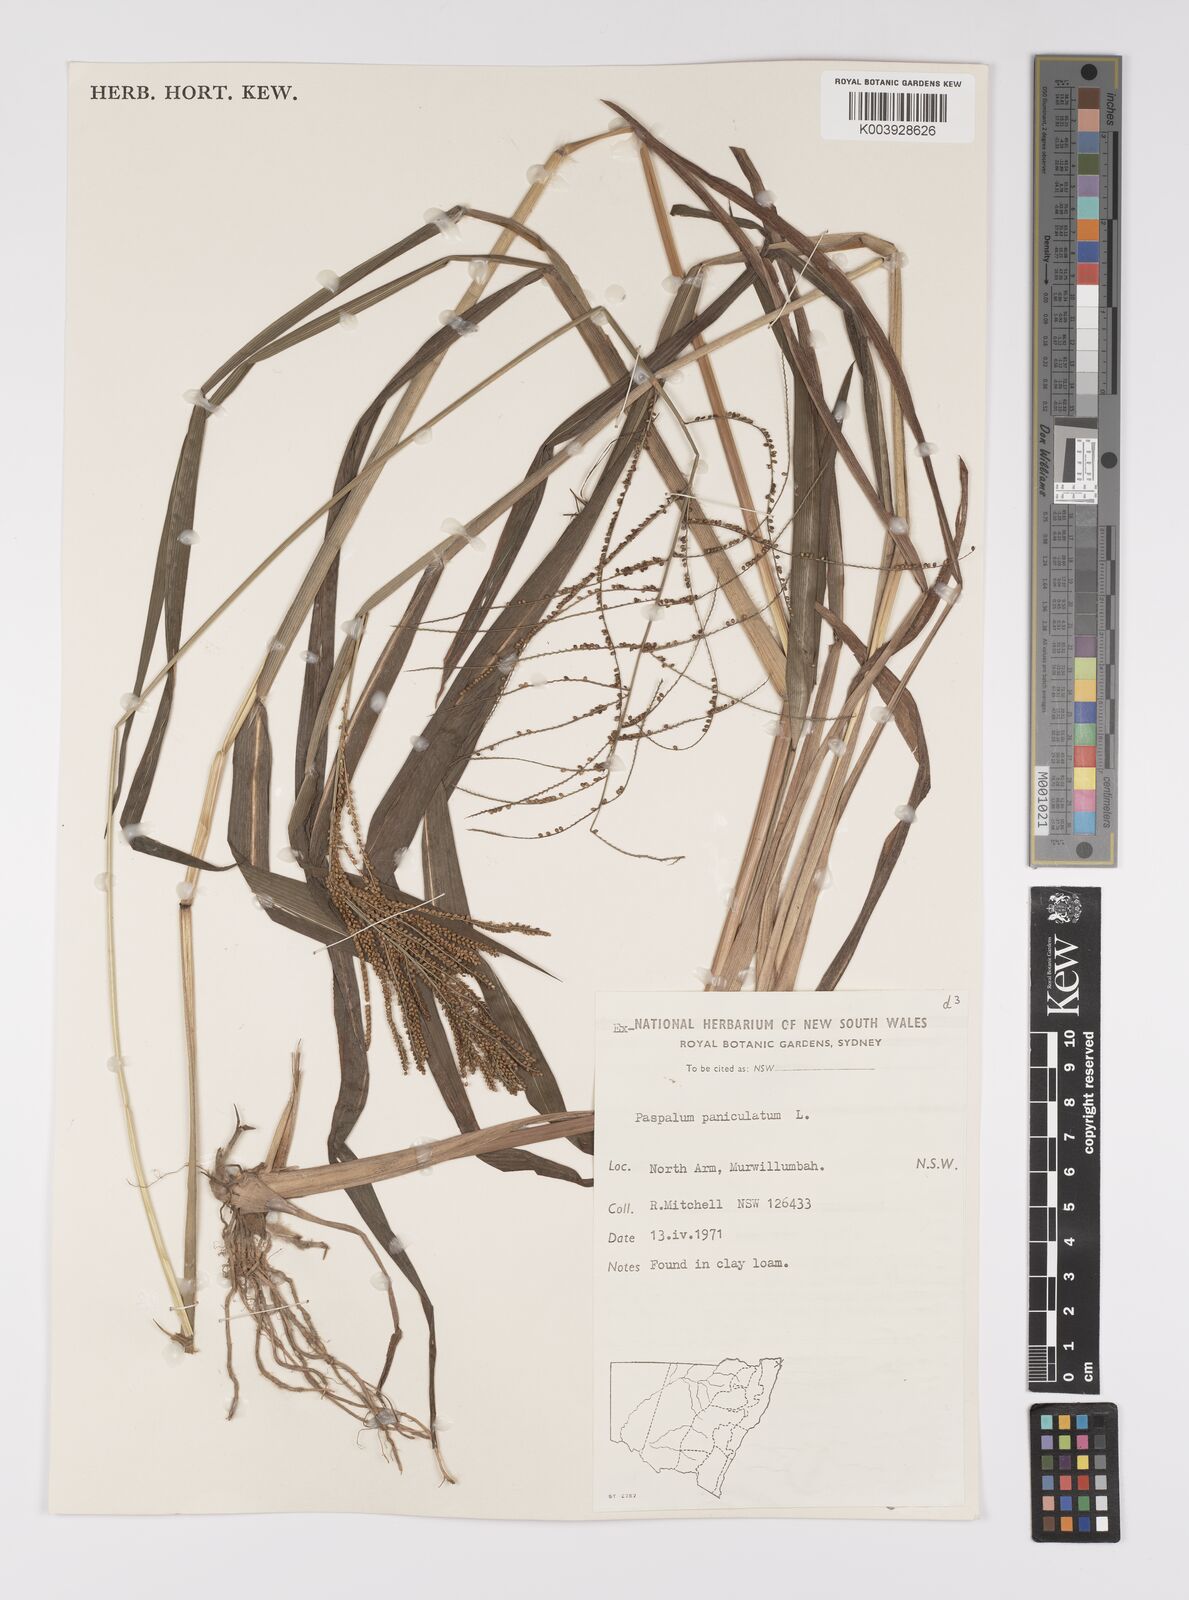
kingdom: Plantae
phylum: Tracheophyta
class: Liliopsida
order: Poales
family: Poaceae
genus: Paspalum
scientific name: Paspalum paniculatum
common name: Arrocillo
